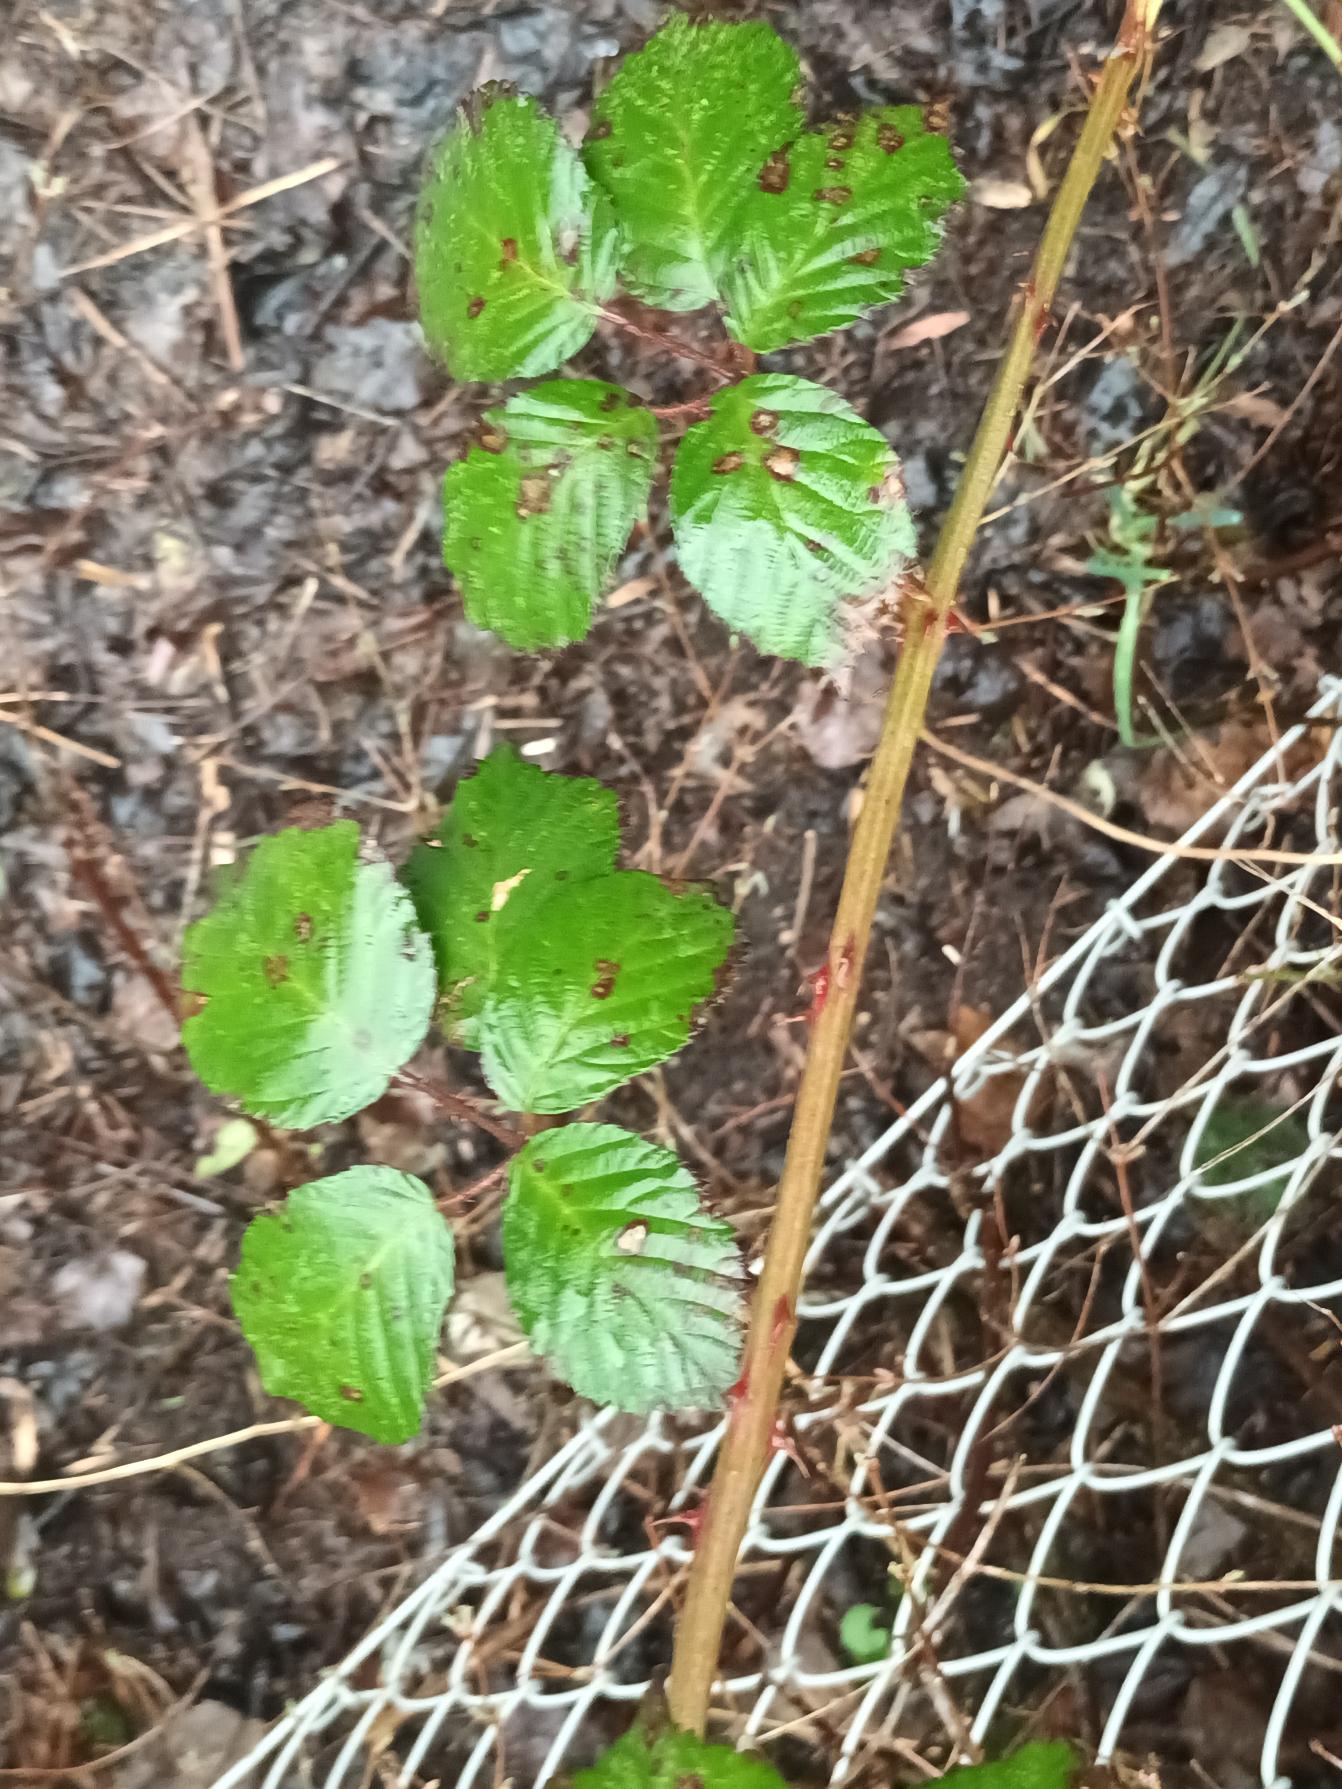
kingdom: Plantae
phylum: Tracheophyta
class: Magnoliopsida
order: Rosales
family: Rosaceae
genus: Rubus
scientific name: Rubus armeniacus
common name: Armensk brombær
